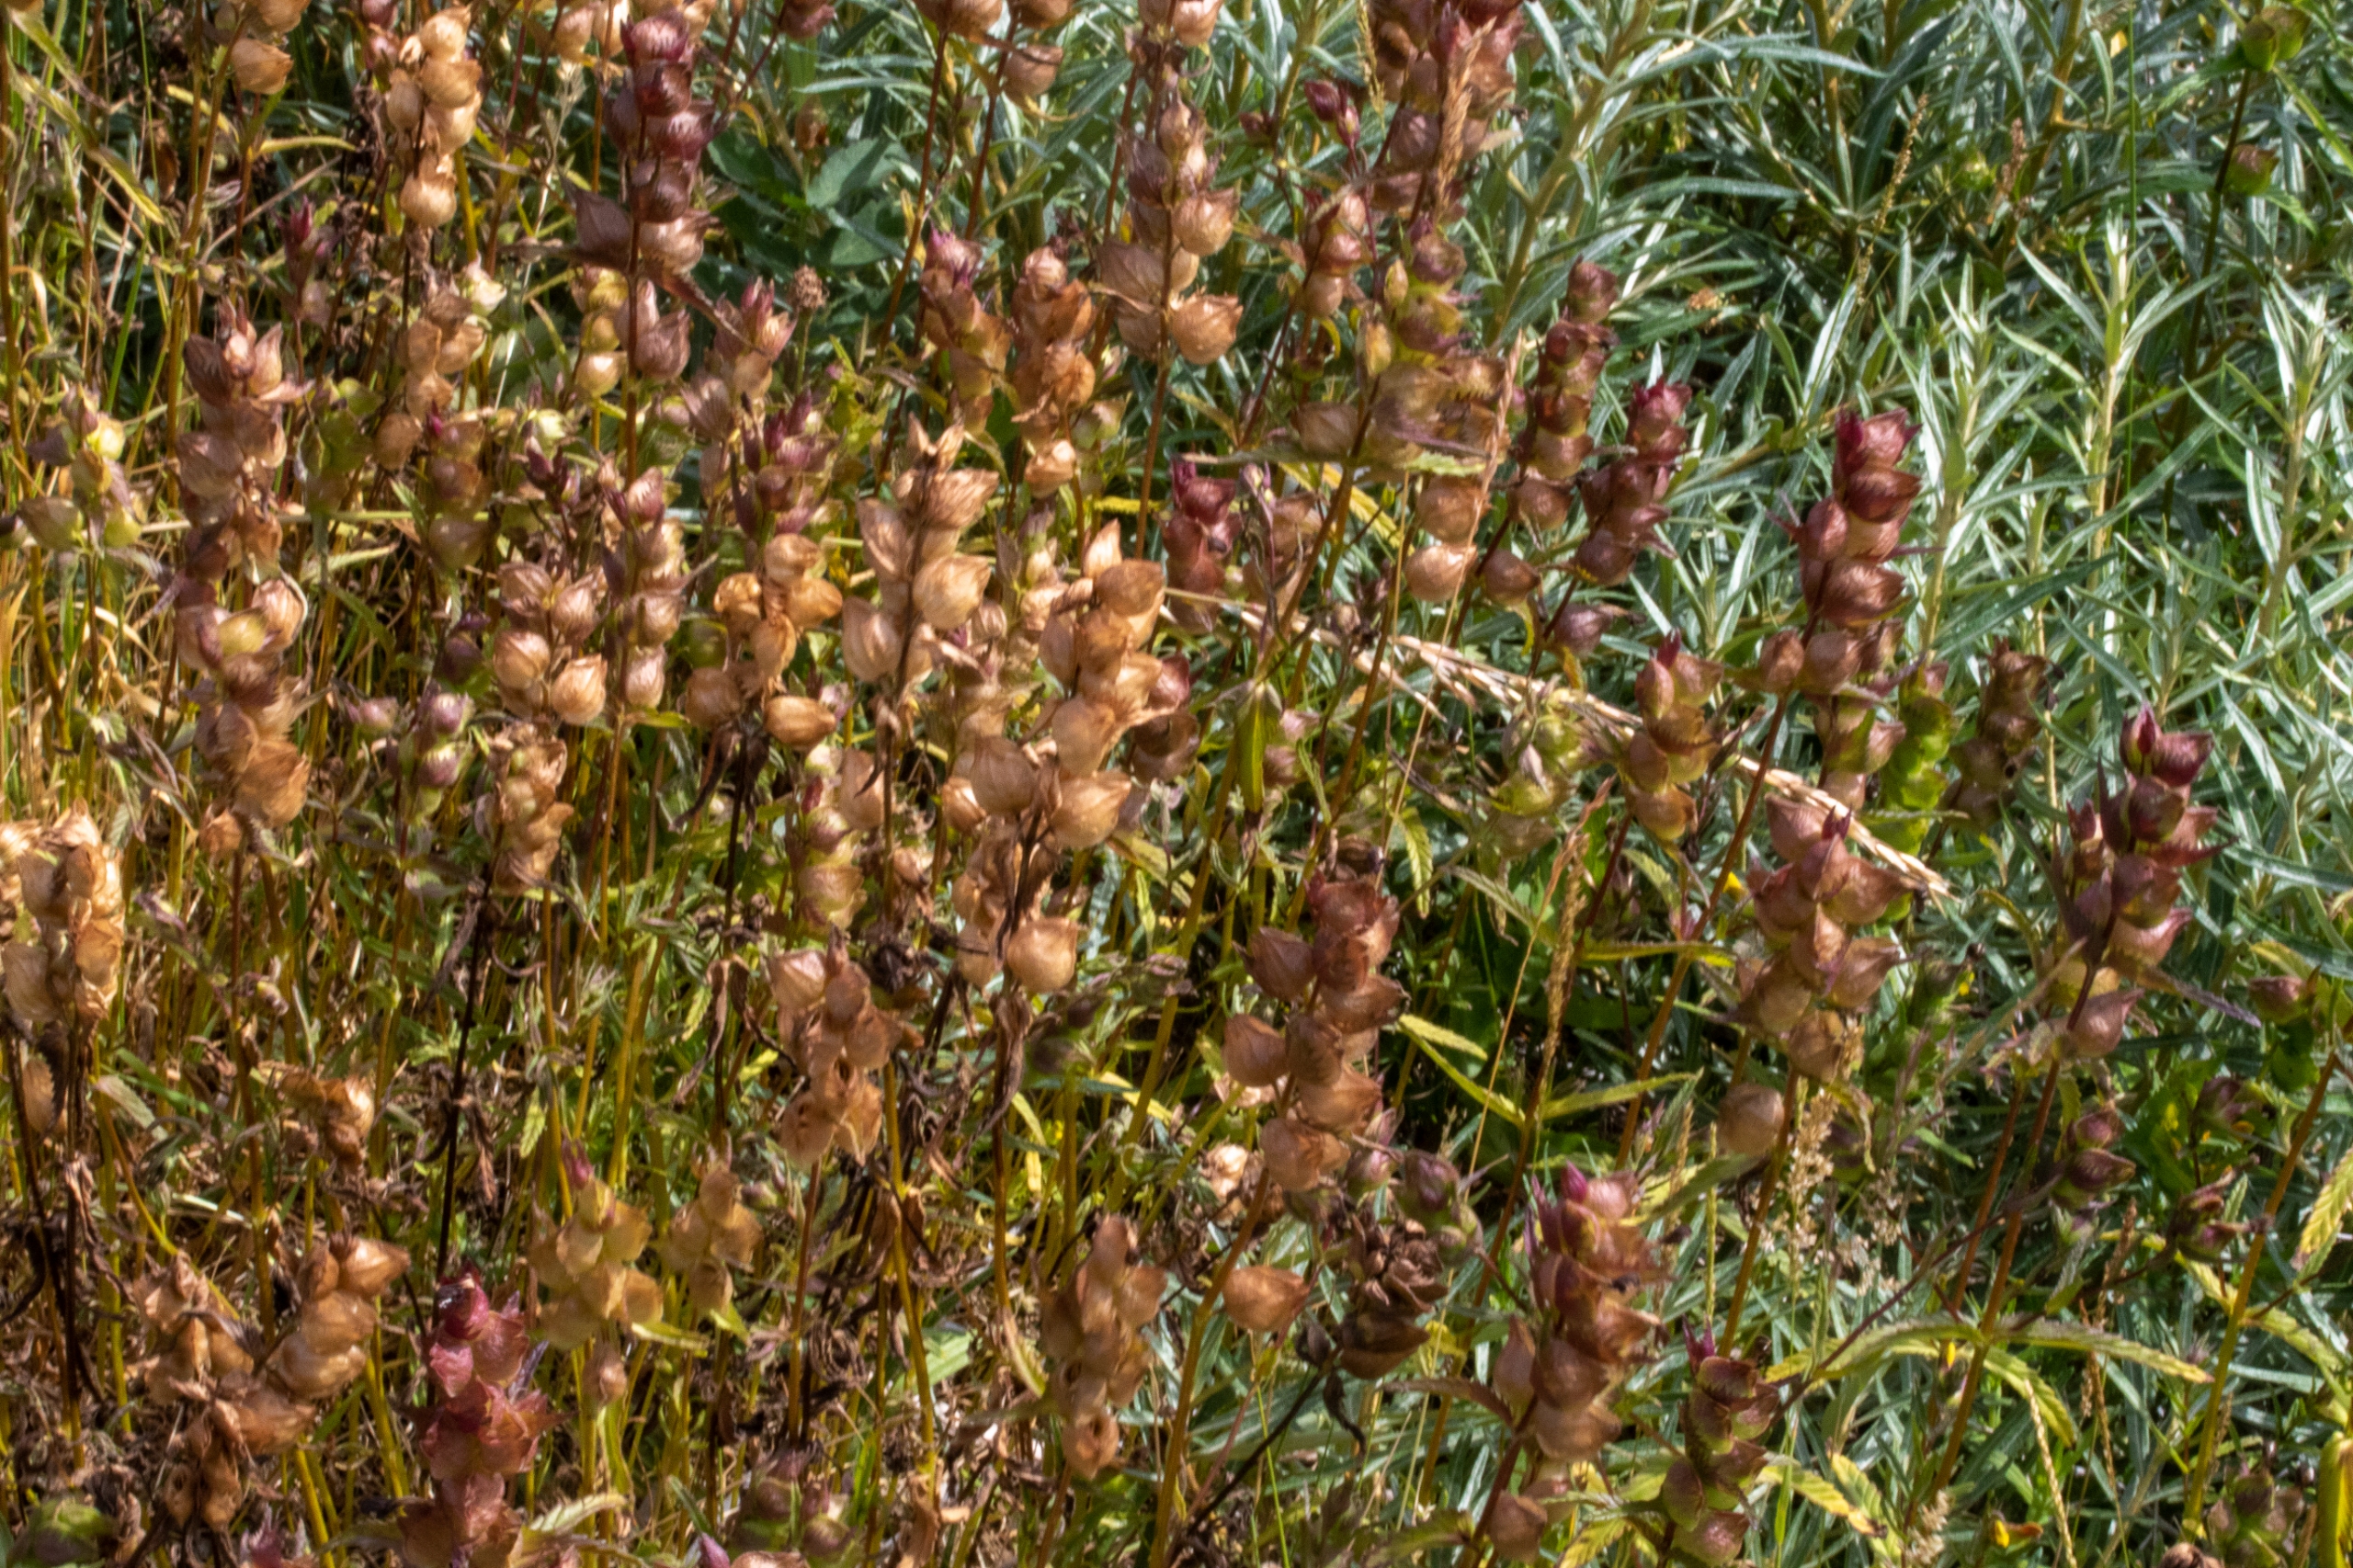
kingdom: Plantae
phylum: Tracheophyta
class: Magnoliopsida
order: Lamiales
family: Orobanchaceae
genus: Rhinanthus
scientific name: Rhinanthus
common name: Skjallerslægten
